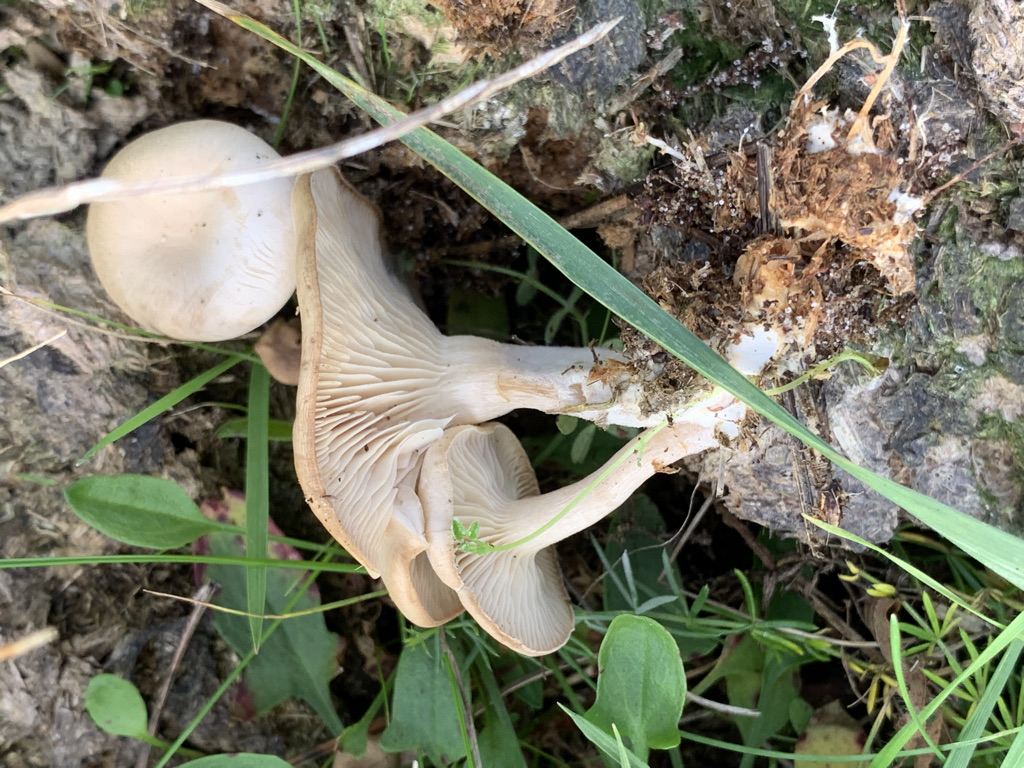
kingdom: Fungi
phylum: Basidiomycota
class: Agaricomycetes
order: Agaricales
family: Tricholomataceae
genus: Clitocybe
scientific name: Clitocybe amarescens
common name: gødnings-tragthat
